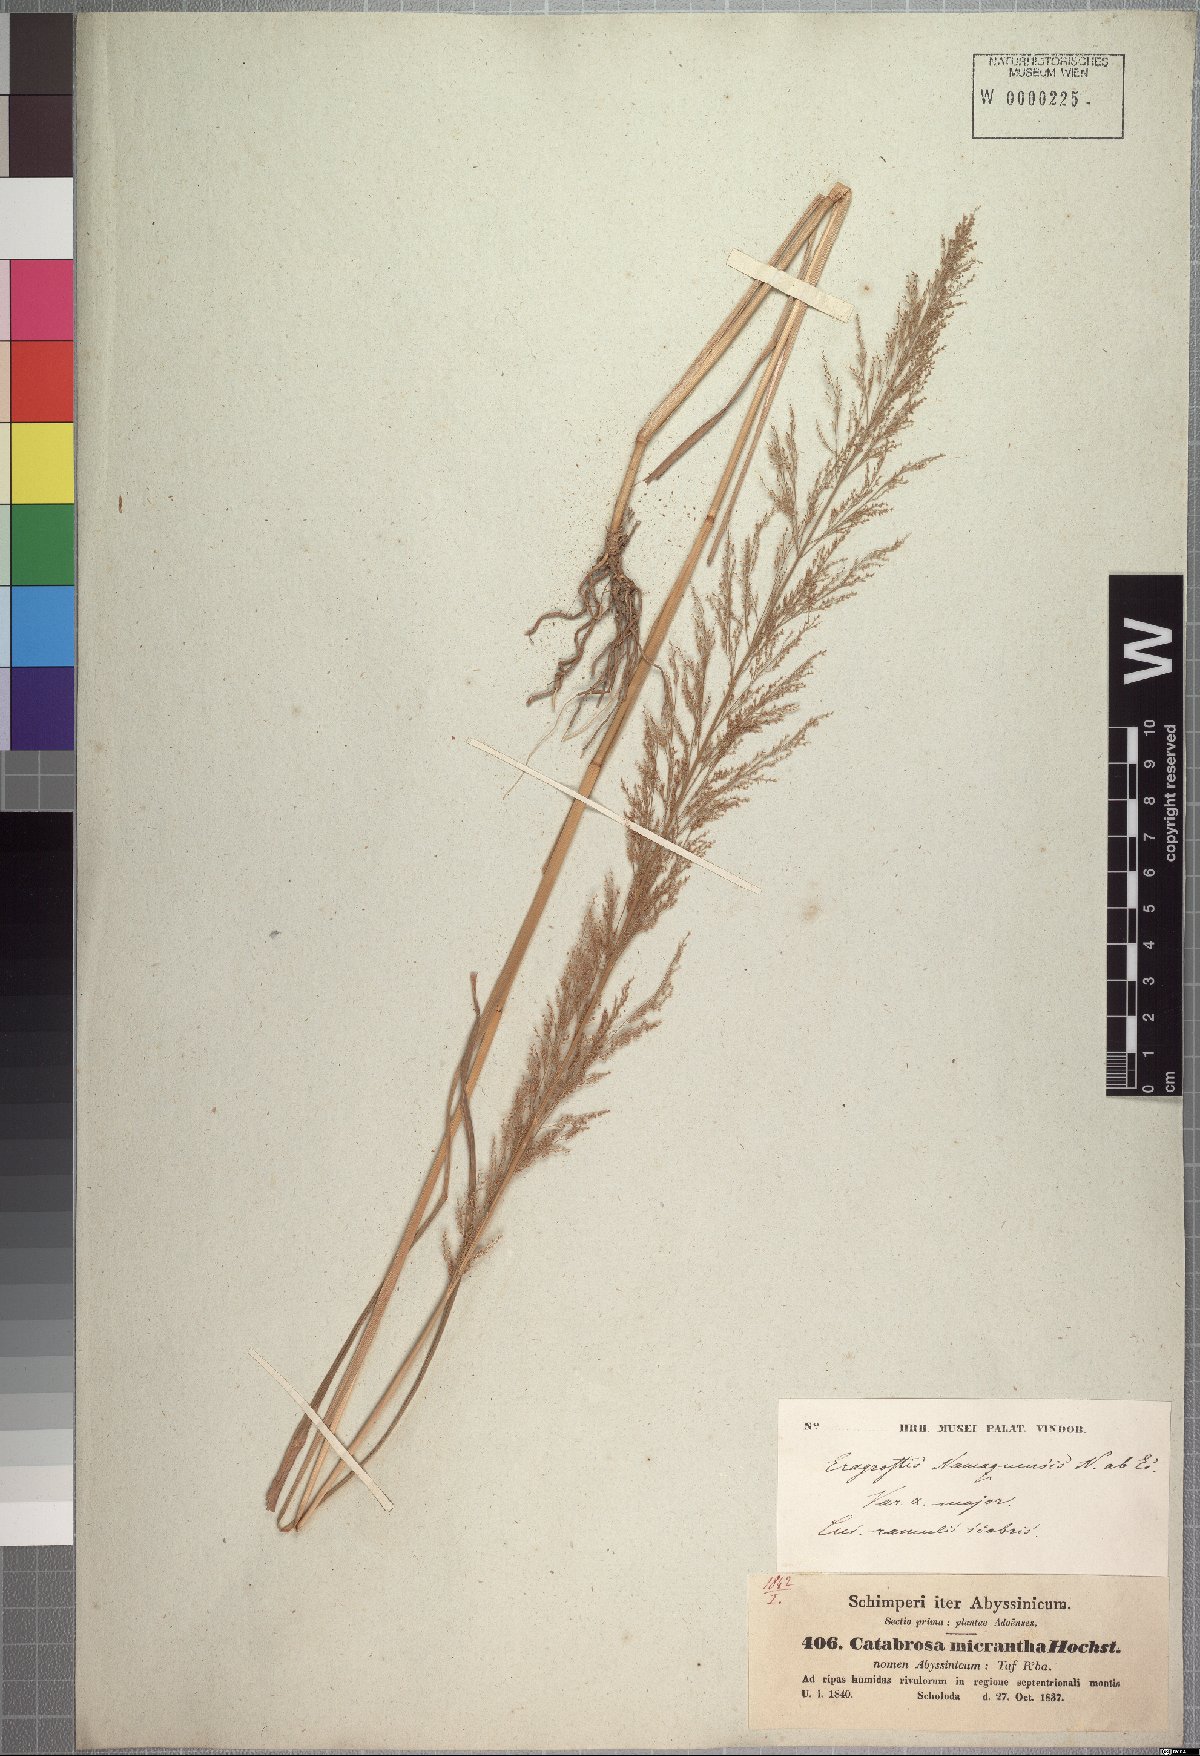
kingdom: Plantae
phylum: Tracheophyta
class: Liliopsida
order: Poales
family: Poaceae
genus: Eragrostis
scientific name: Eragrostis japonica
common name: Pond lovegrass
